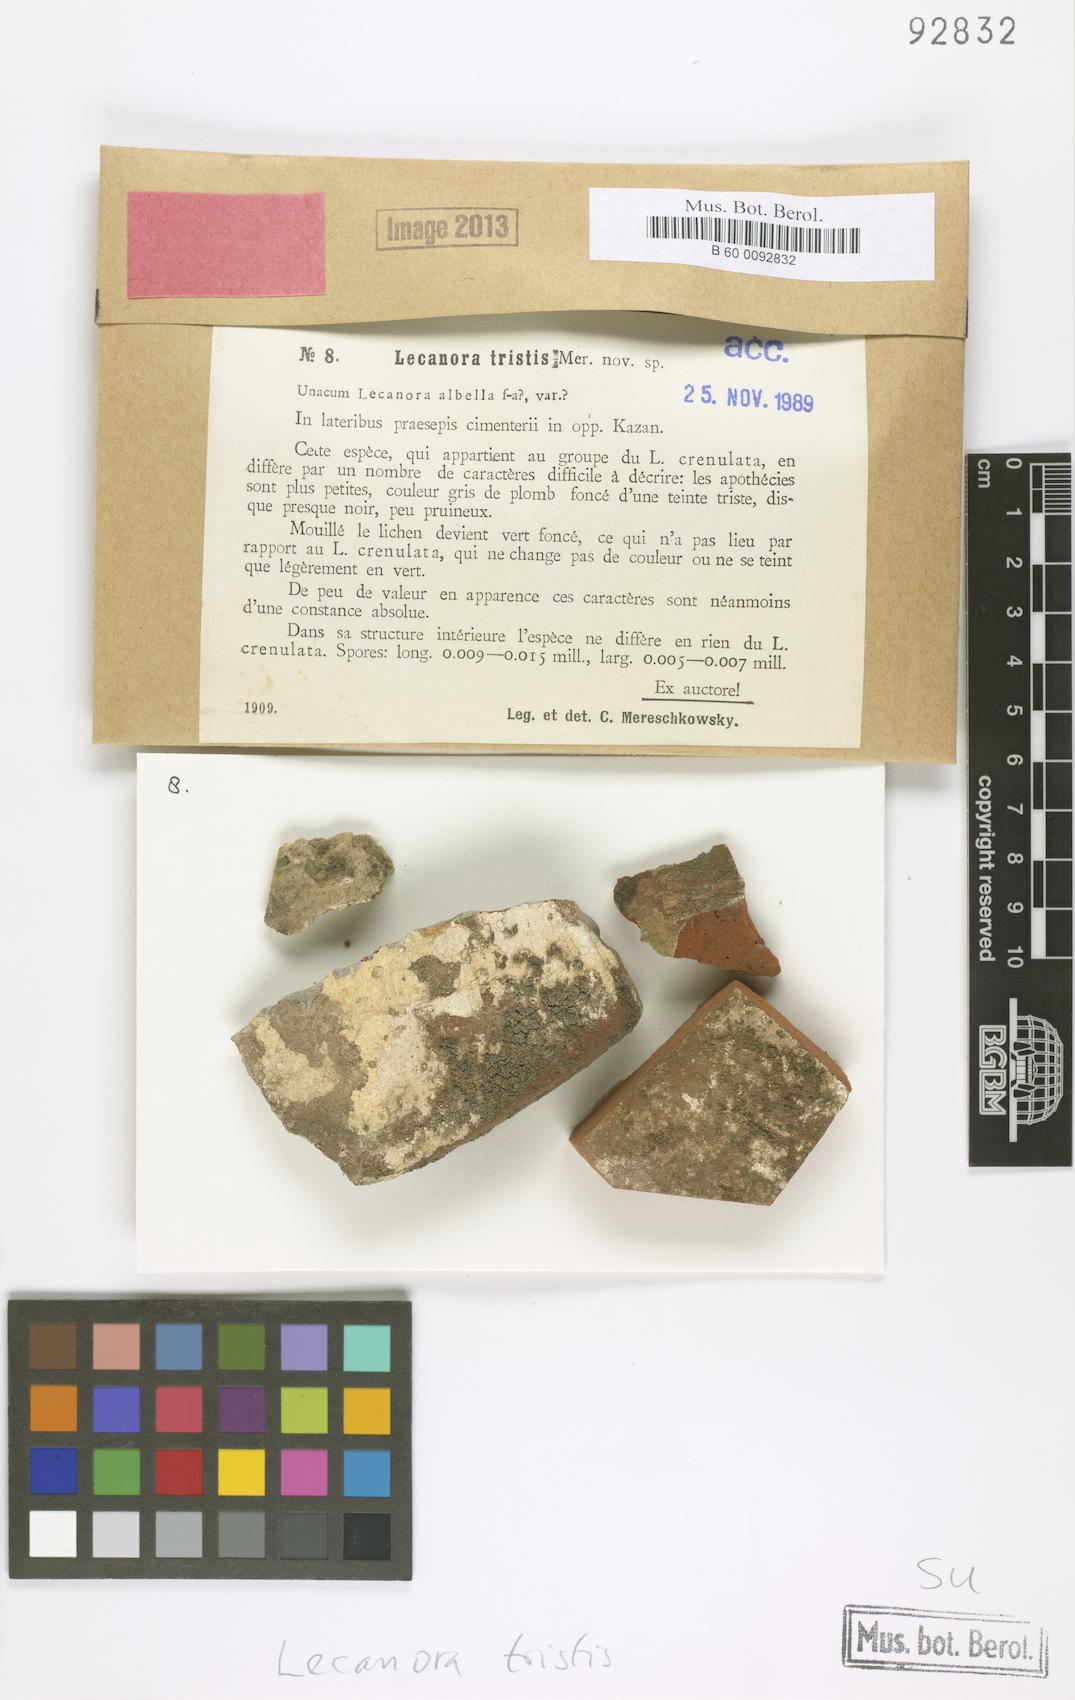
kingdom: Fungi
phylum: Ascomycota
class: Lecanoromycetes
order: Lecanorales
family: Lecanoraceae
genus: Lecanora
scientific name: Lecanora tristis
